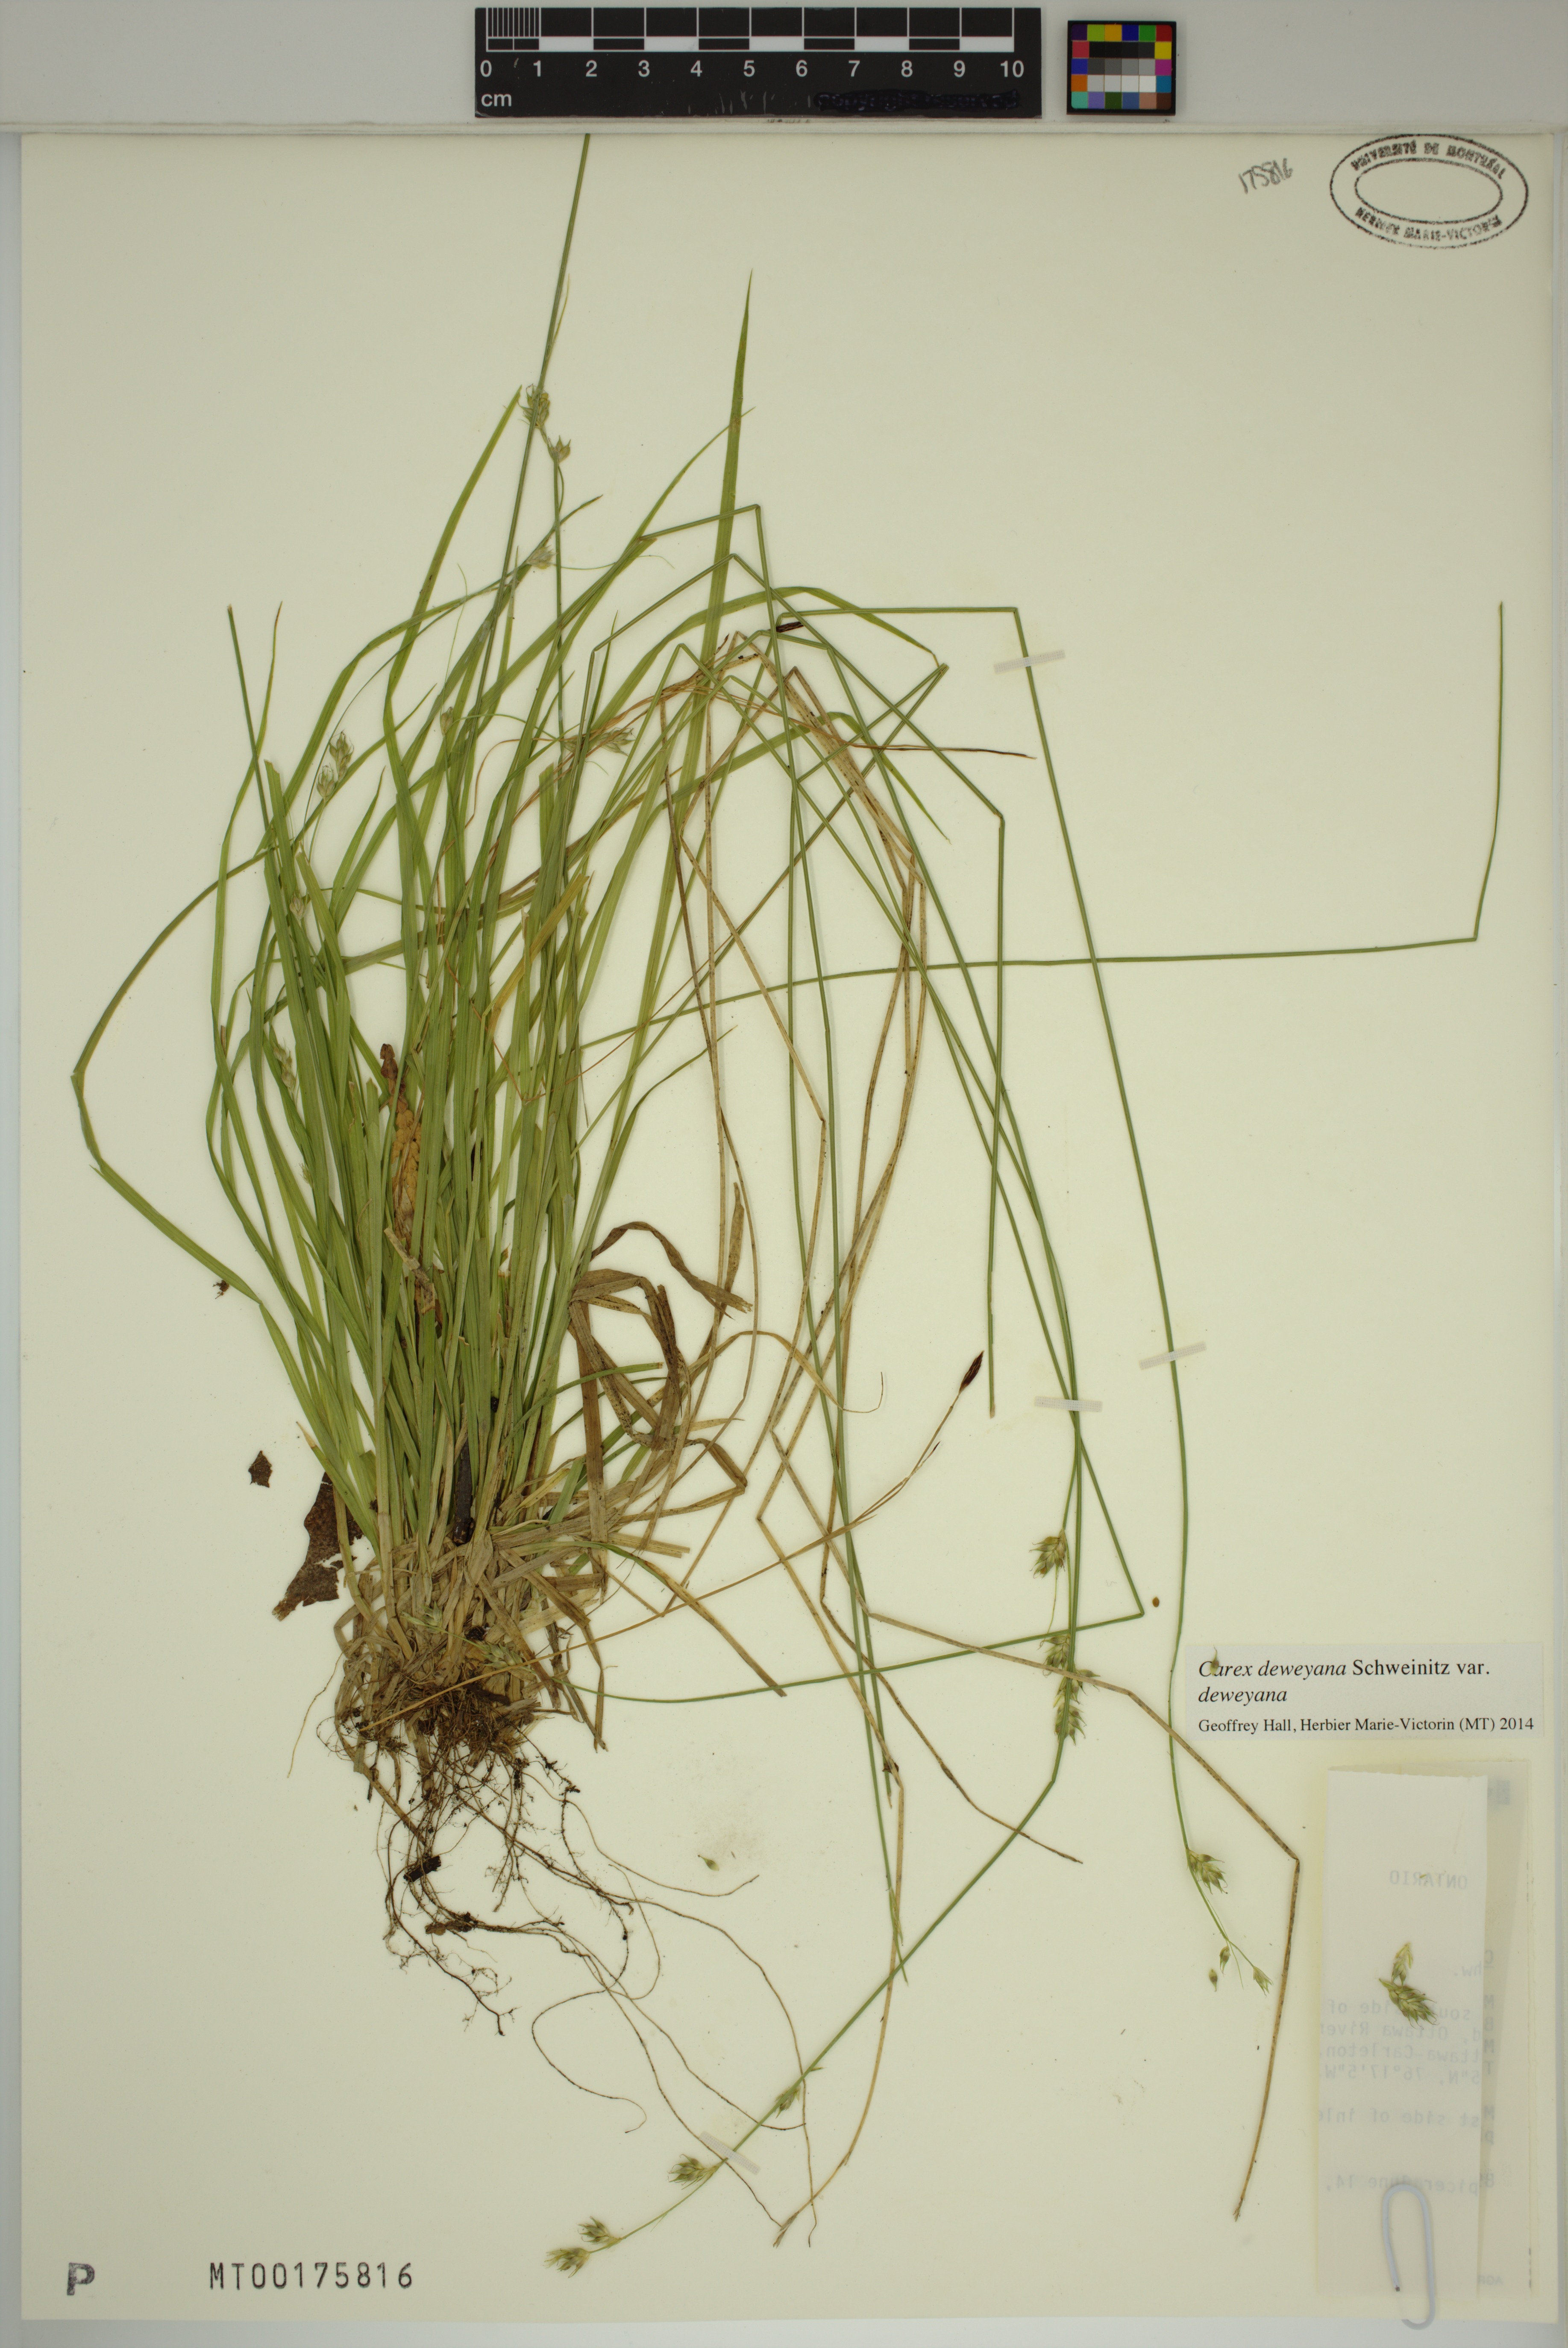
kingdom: Plantae
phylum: Tracheophyta
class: Liliopsida
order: Poales
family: Cyperaceae
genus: Carex
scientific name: Carex deweyana
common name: Dewey's sedge
